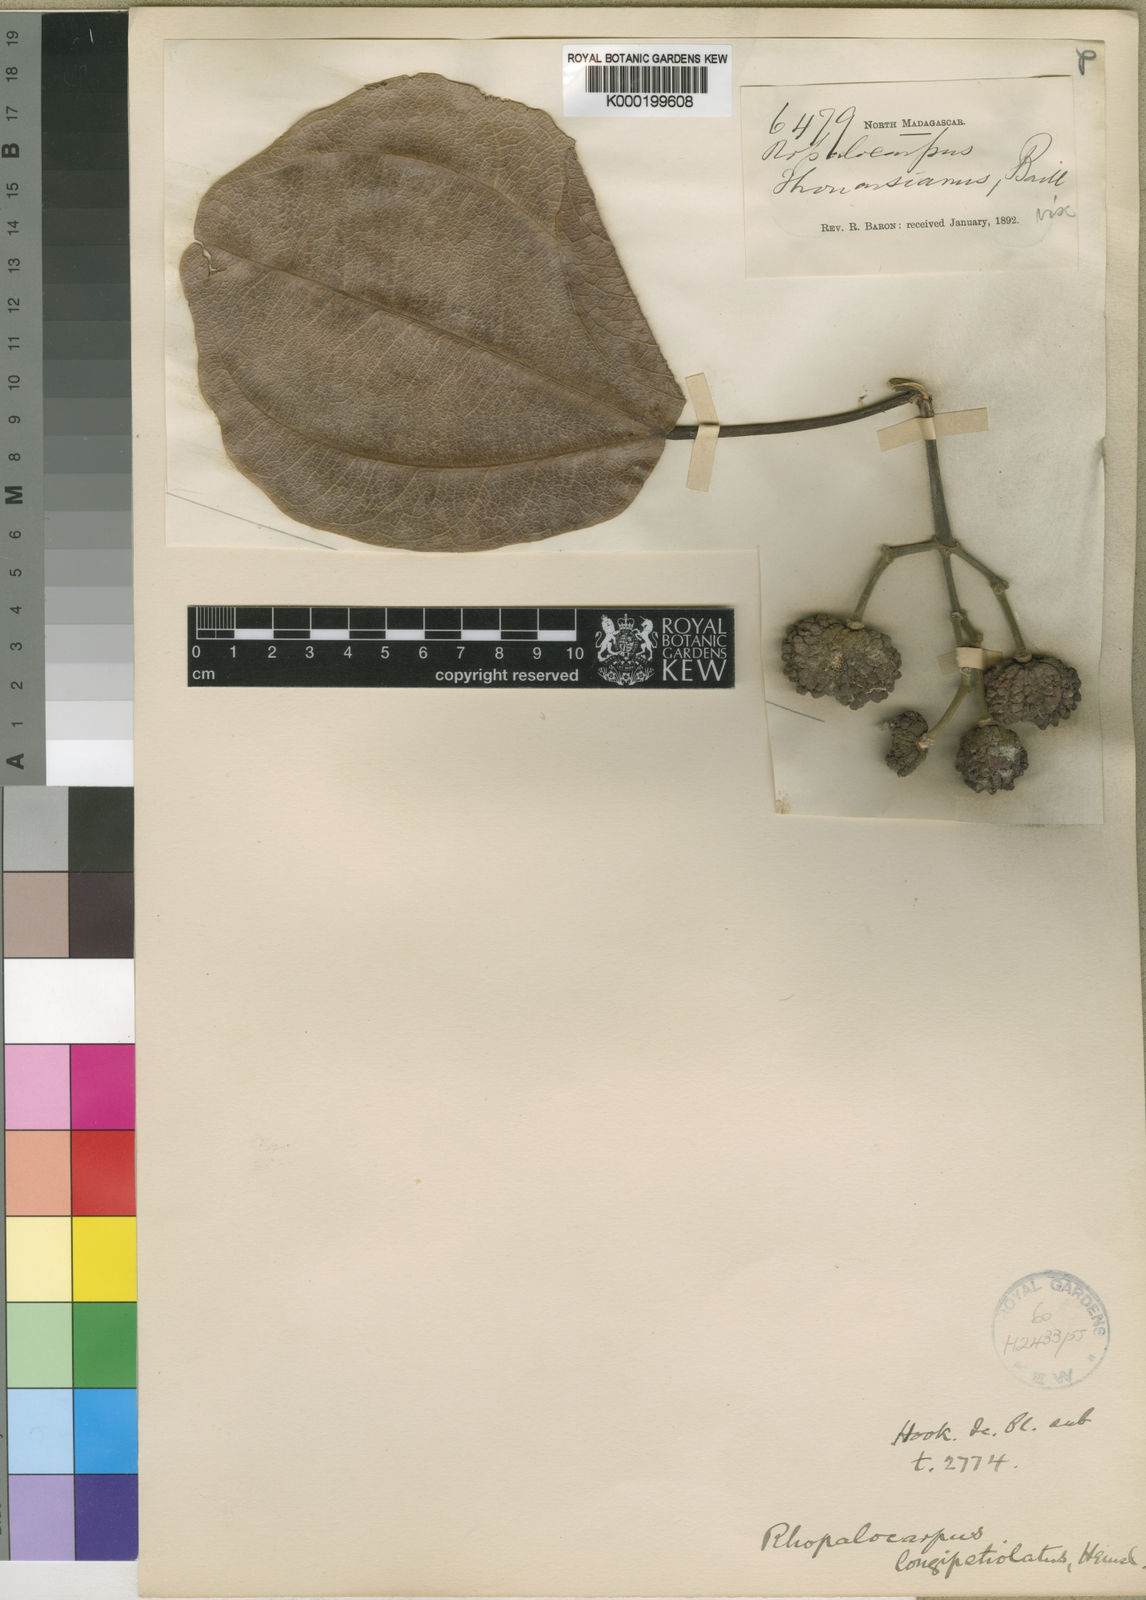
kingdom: Plantae
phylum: Tracheophyta
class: Magnoliopsida
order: Malvales
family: Sphaerosepalaceae
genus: Rhopalocarpus
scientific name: Rhopalocarpus longipetiolatus
